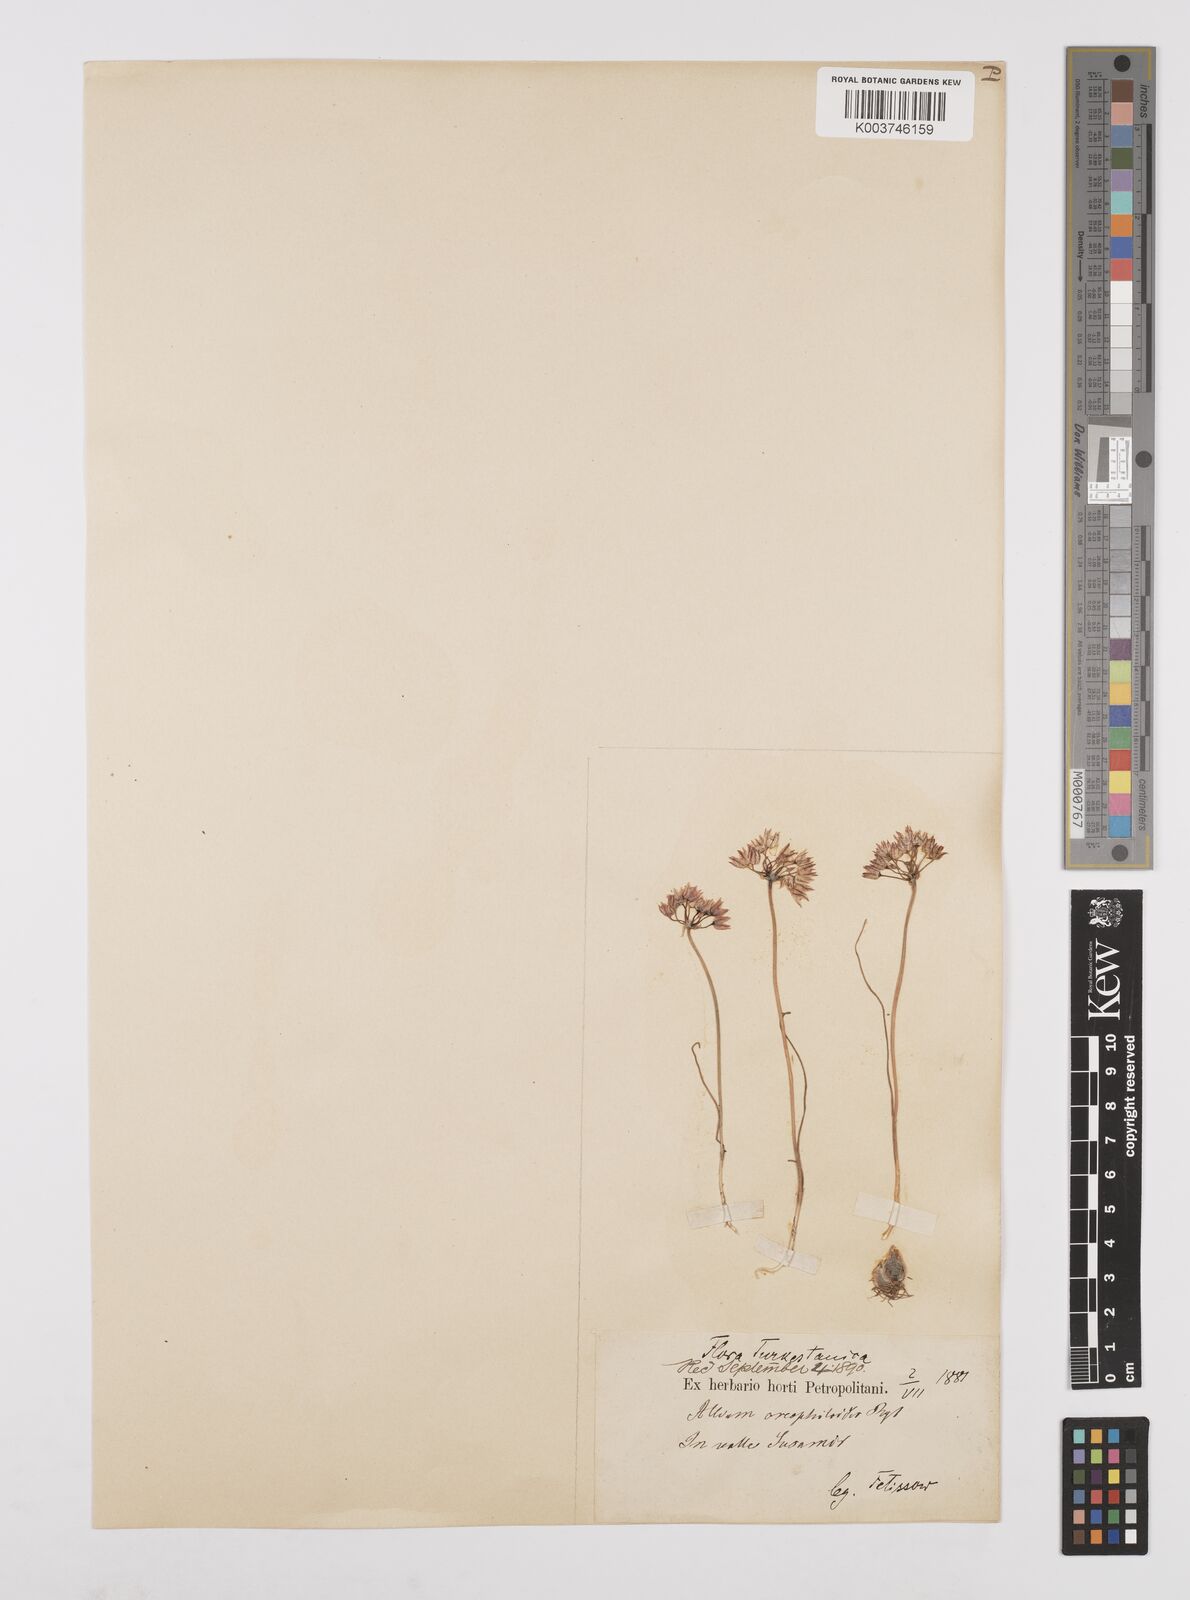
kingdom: Plantae
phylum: Tracheophyta
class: Liliopsida
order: Asparagales
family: Amaryllidaceae
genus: Allium
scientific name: Allium oreophiloides
